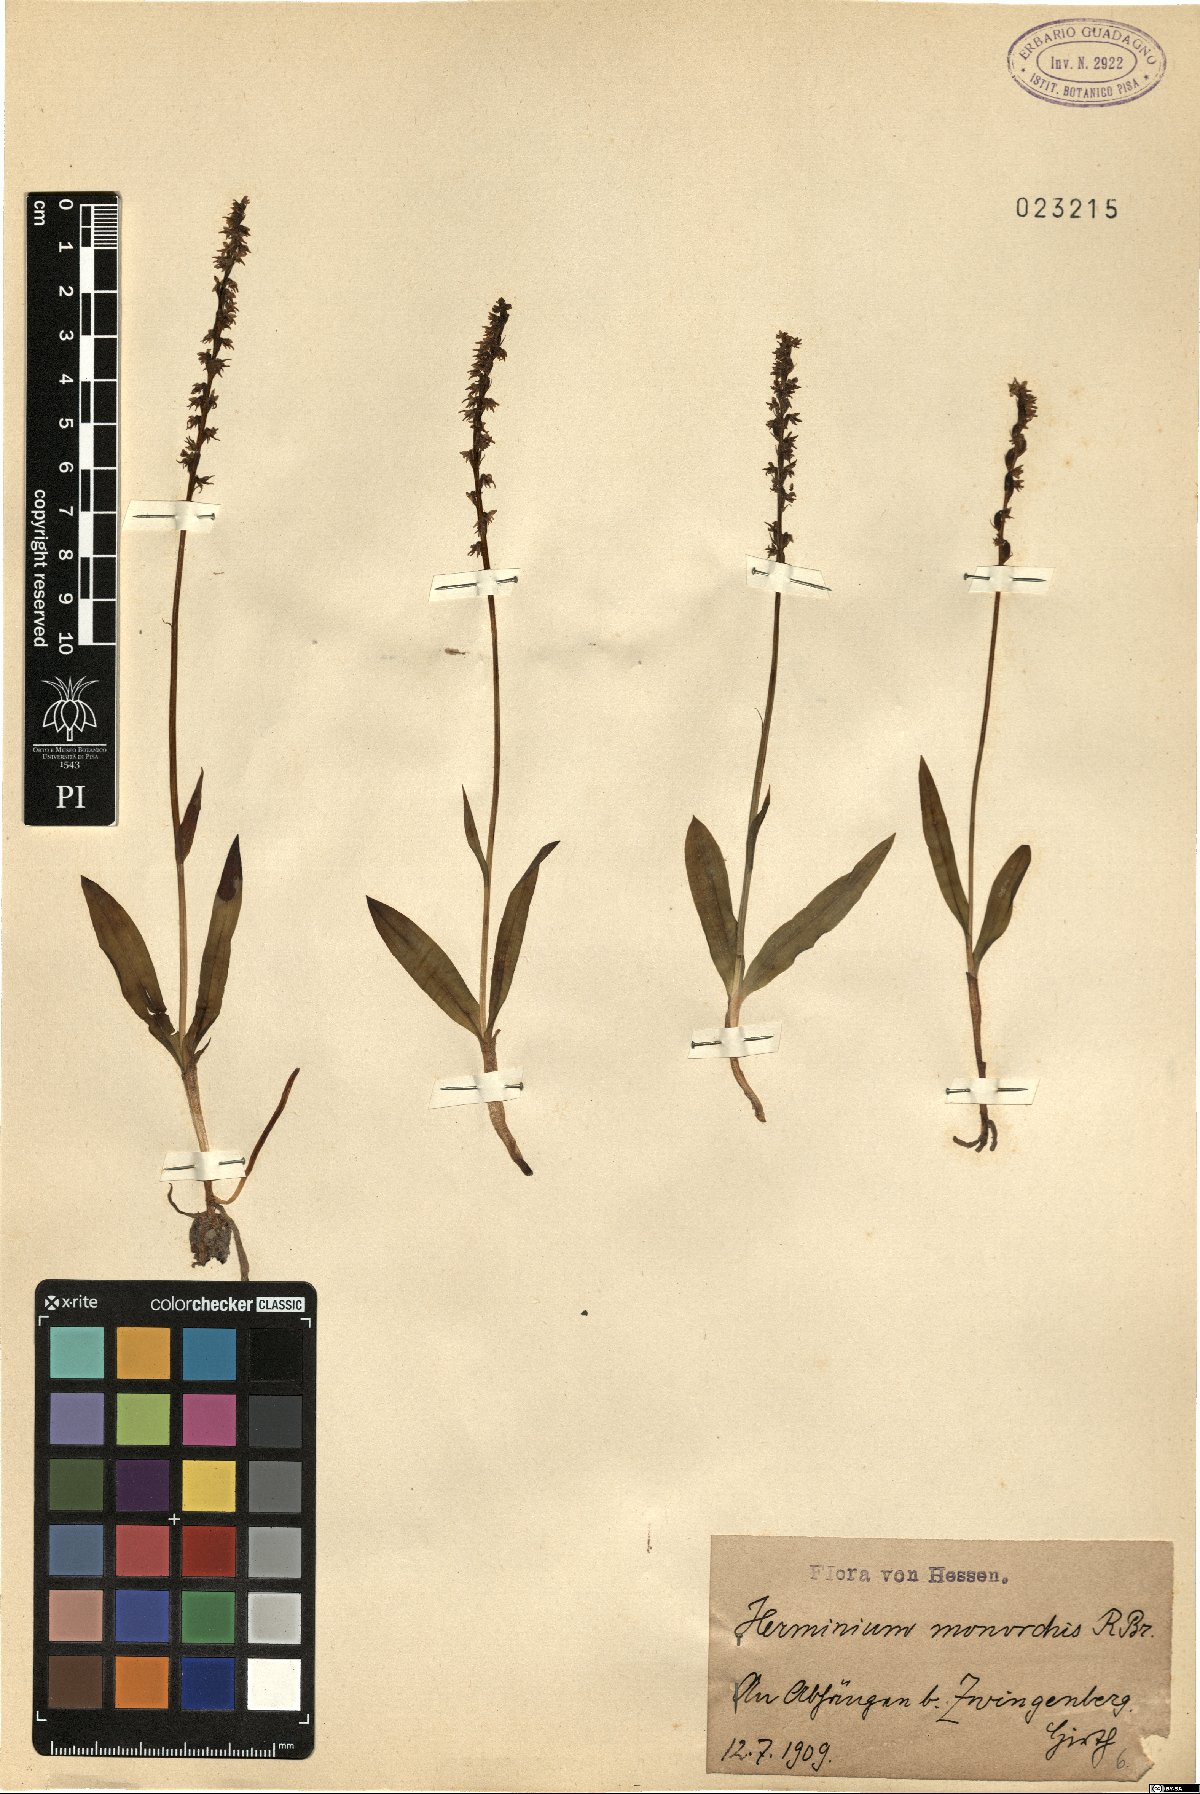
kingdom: Plantae
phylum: Tracheophyta
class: Liliopsida
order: Asparagales
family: Orchidaceae
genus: Herminium
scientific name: Herminium monorchis
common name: Musk orchid
